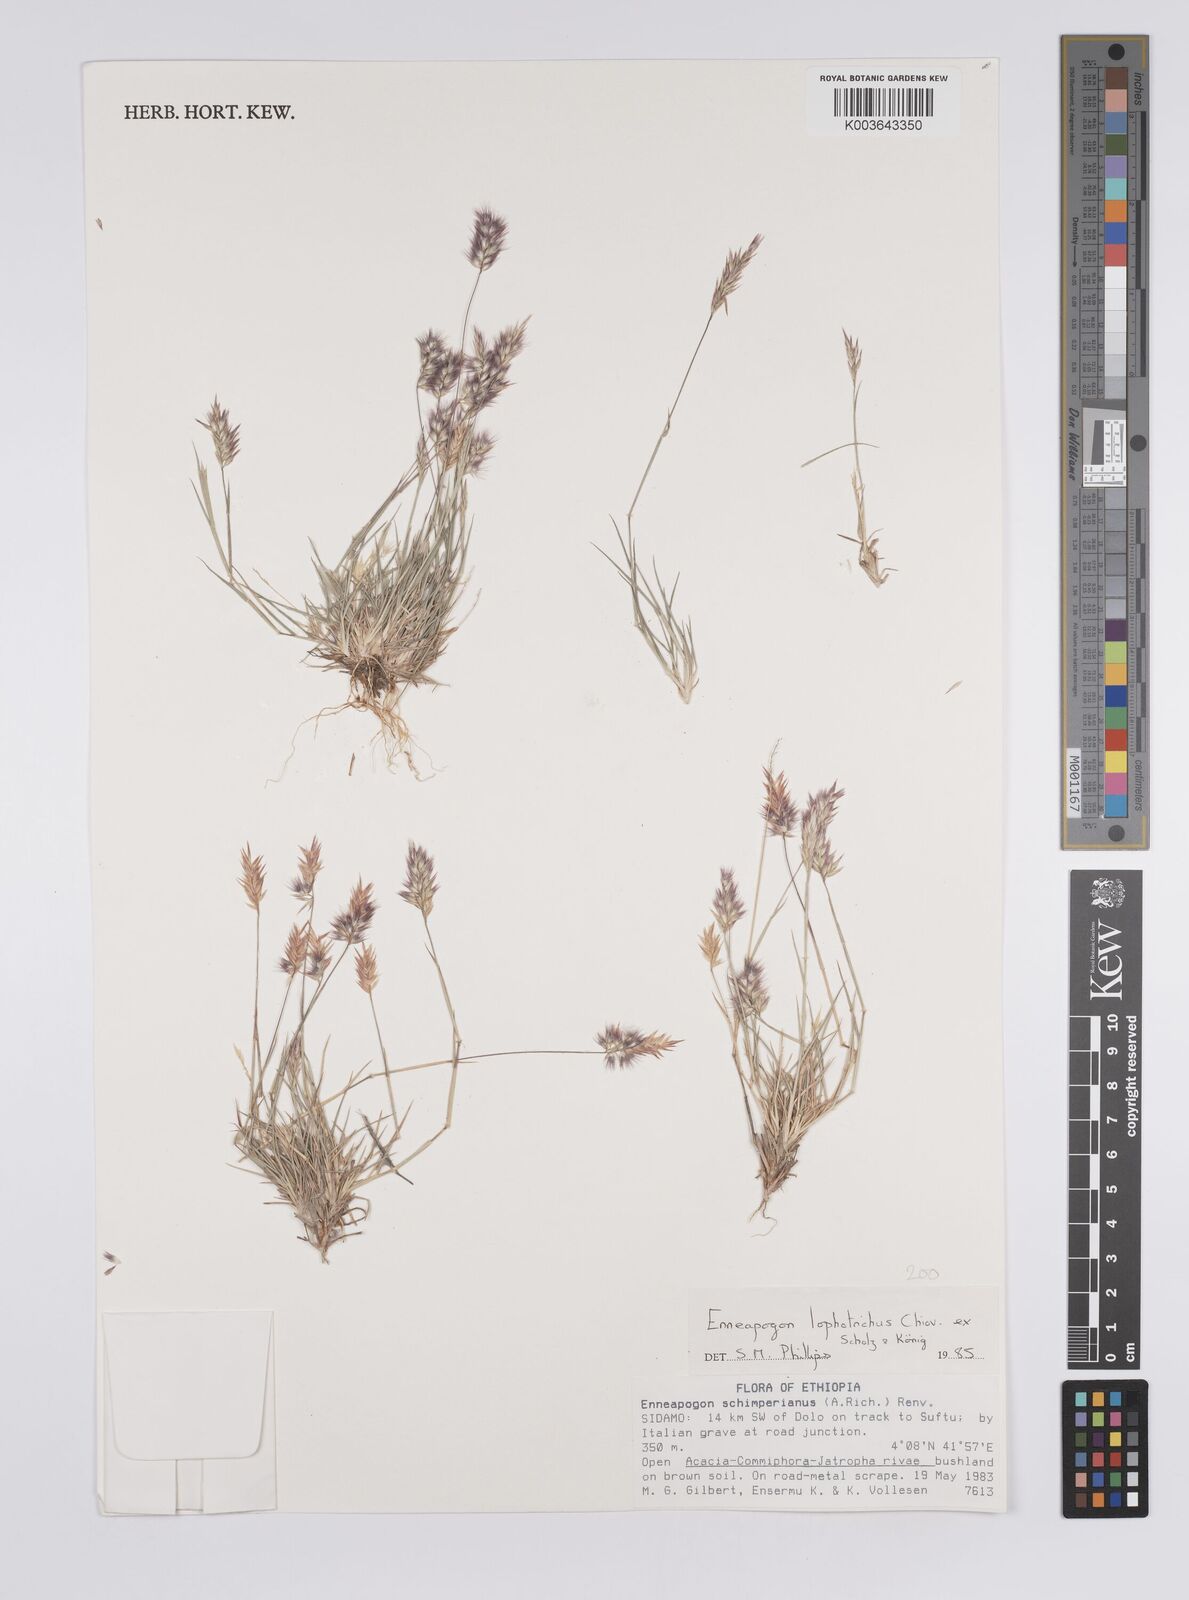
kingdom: Plantae
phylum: Tracheophyta
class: Liliopsida
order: Poales
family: Poaceae
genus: Enneapogon
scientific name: Enneapogon lophotrichus
